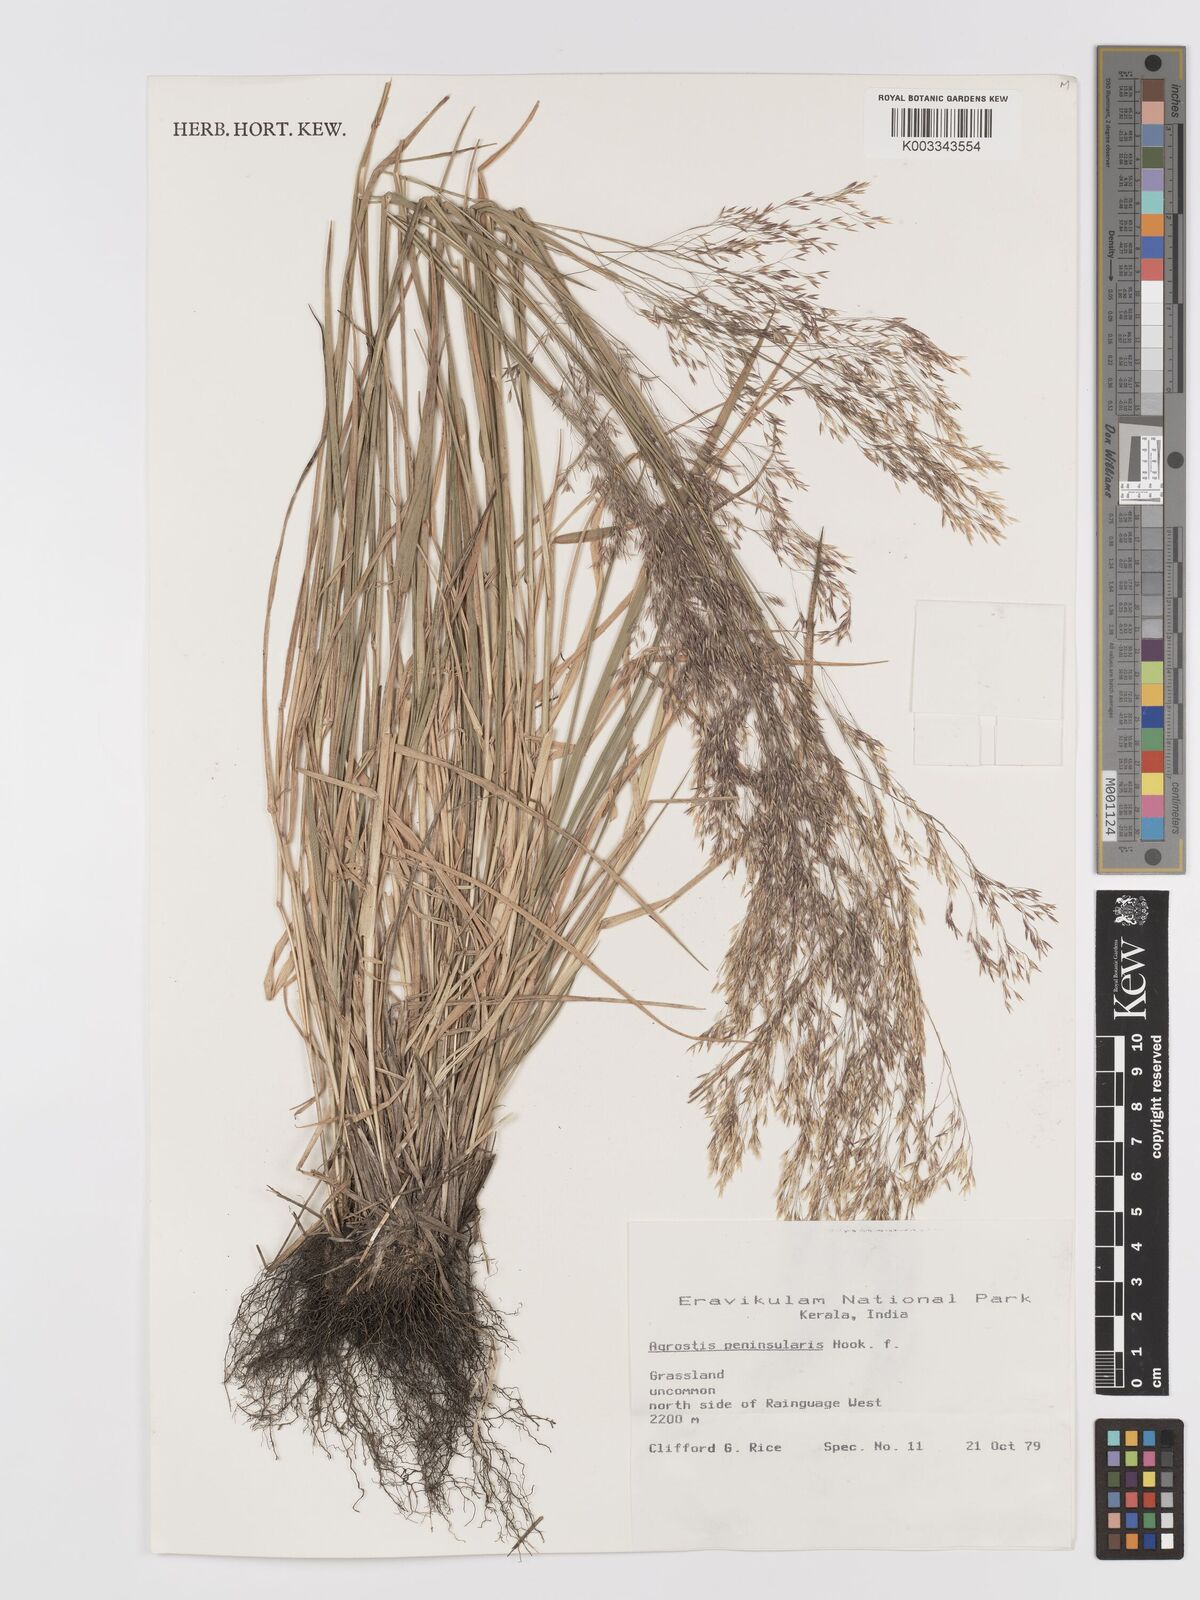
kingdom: Plantae
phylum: Tracheophyta
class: Liliopsida
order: Poales
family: Poaceae
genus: Agrostis
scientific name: Agrostis peninsularis
